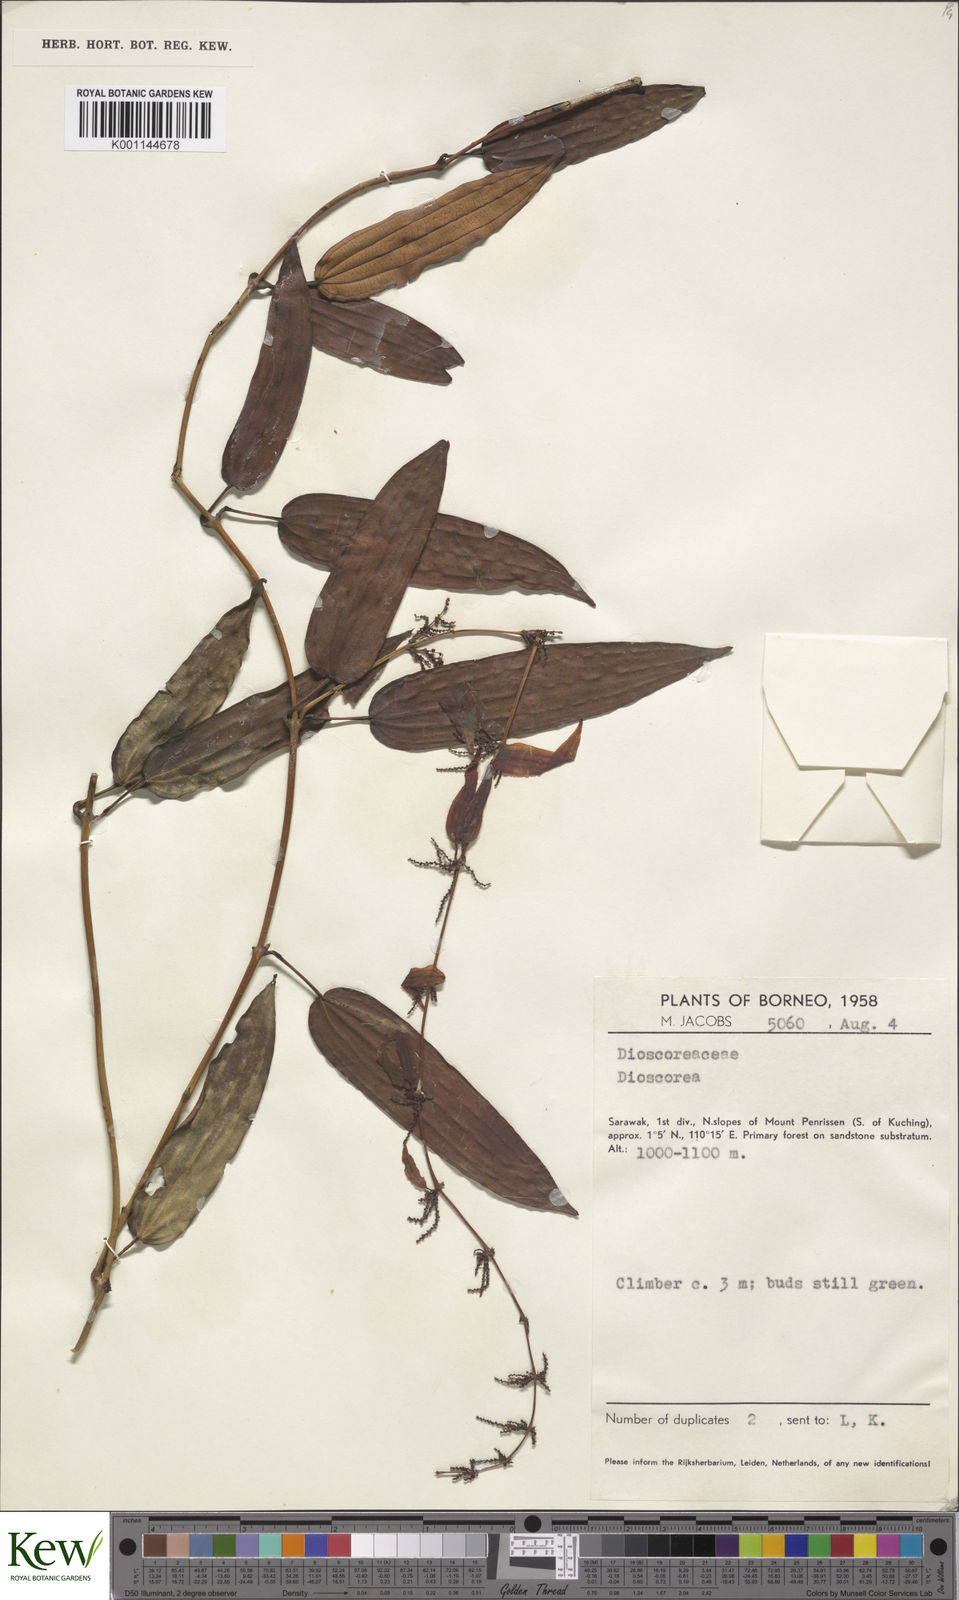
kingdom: Plantae
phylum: Tracheophyta
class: Liliopsida
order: Dioscoreales
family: Dioscoreaceae
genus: Dioscorea
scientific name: Dioscorea
